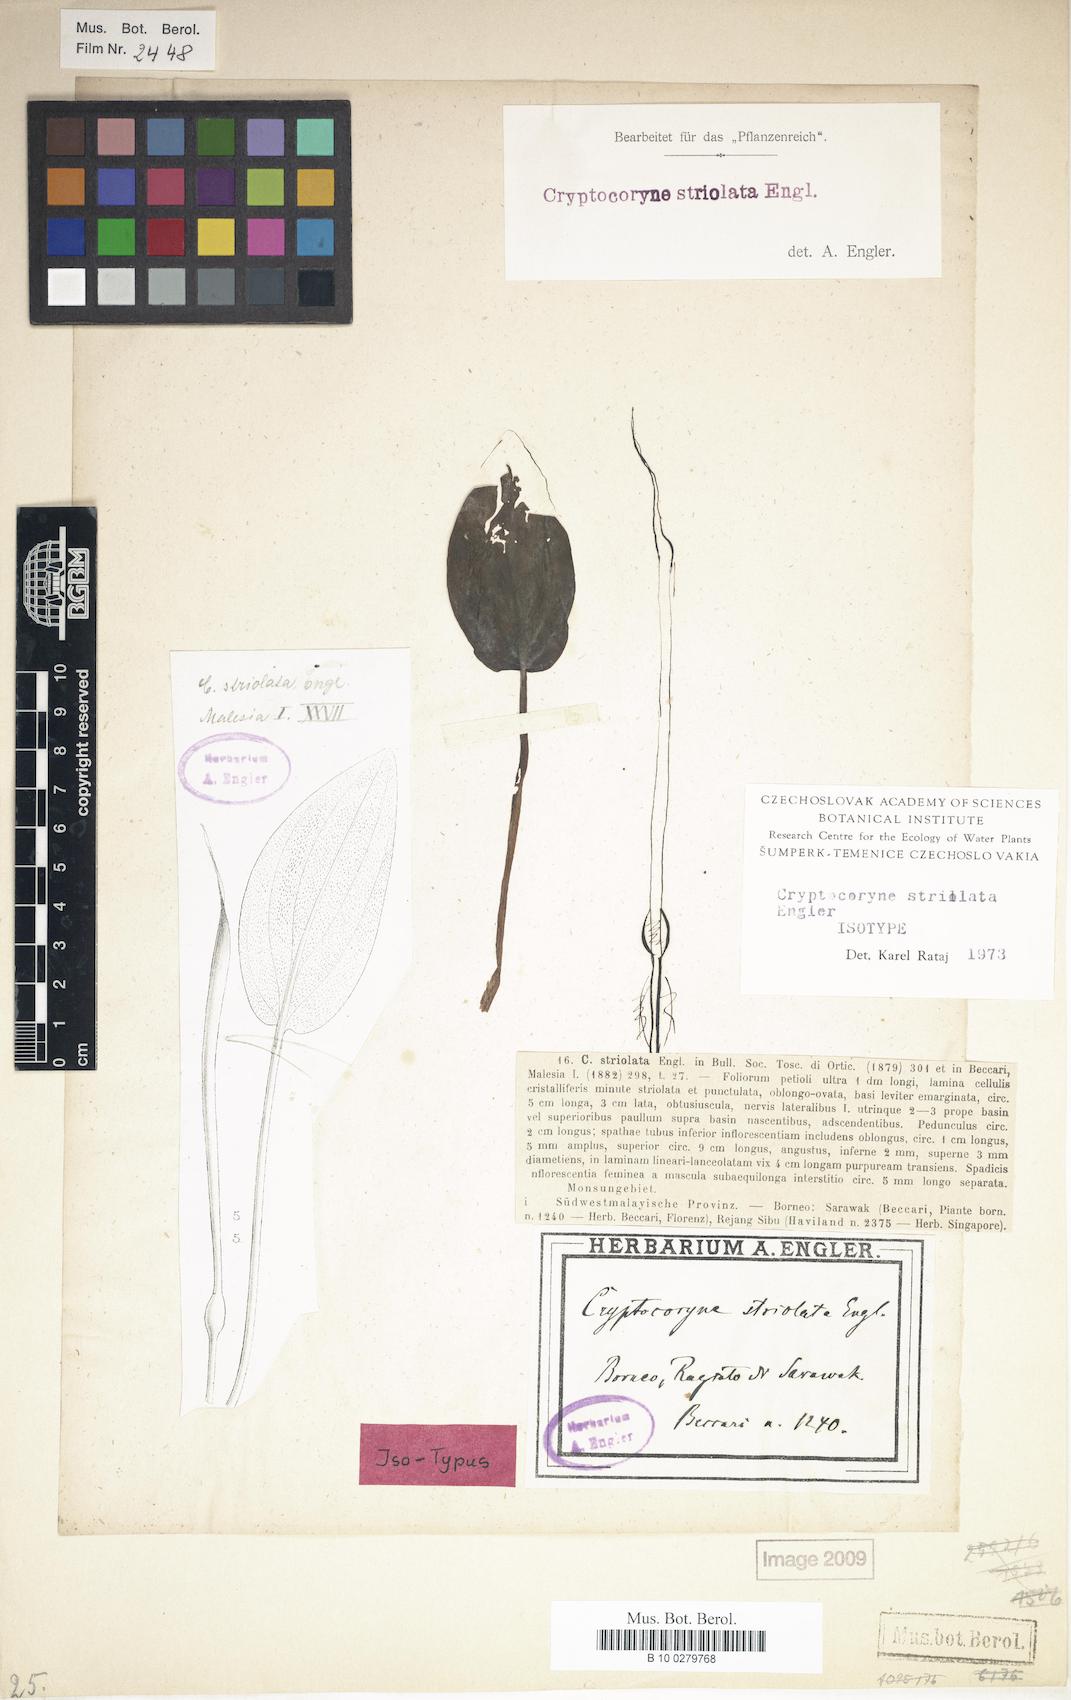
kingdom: Plantae
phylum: Tracheophyta
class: Liliopsida
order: Alismatales
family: Araceae
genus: Cryptocoryne
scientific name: Cryptocoryne striolata
